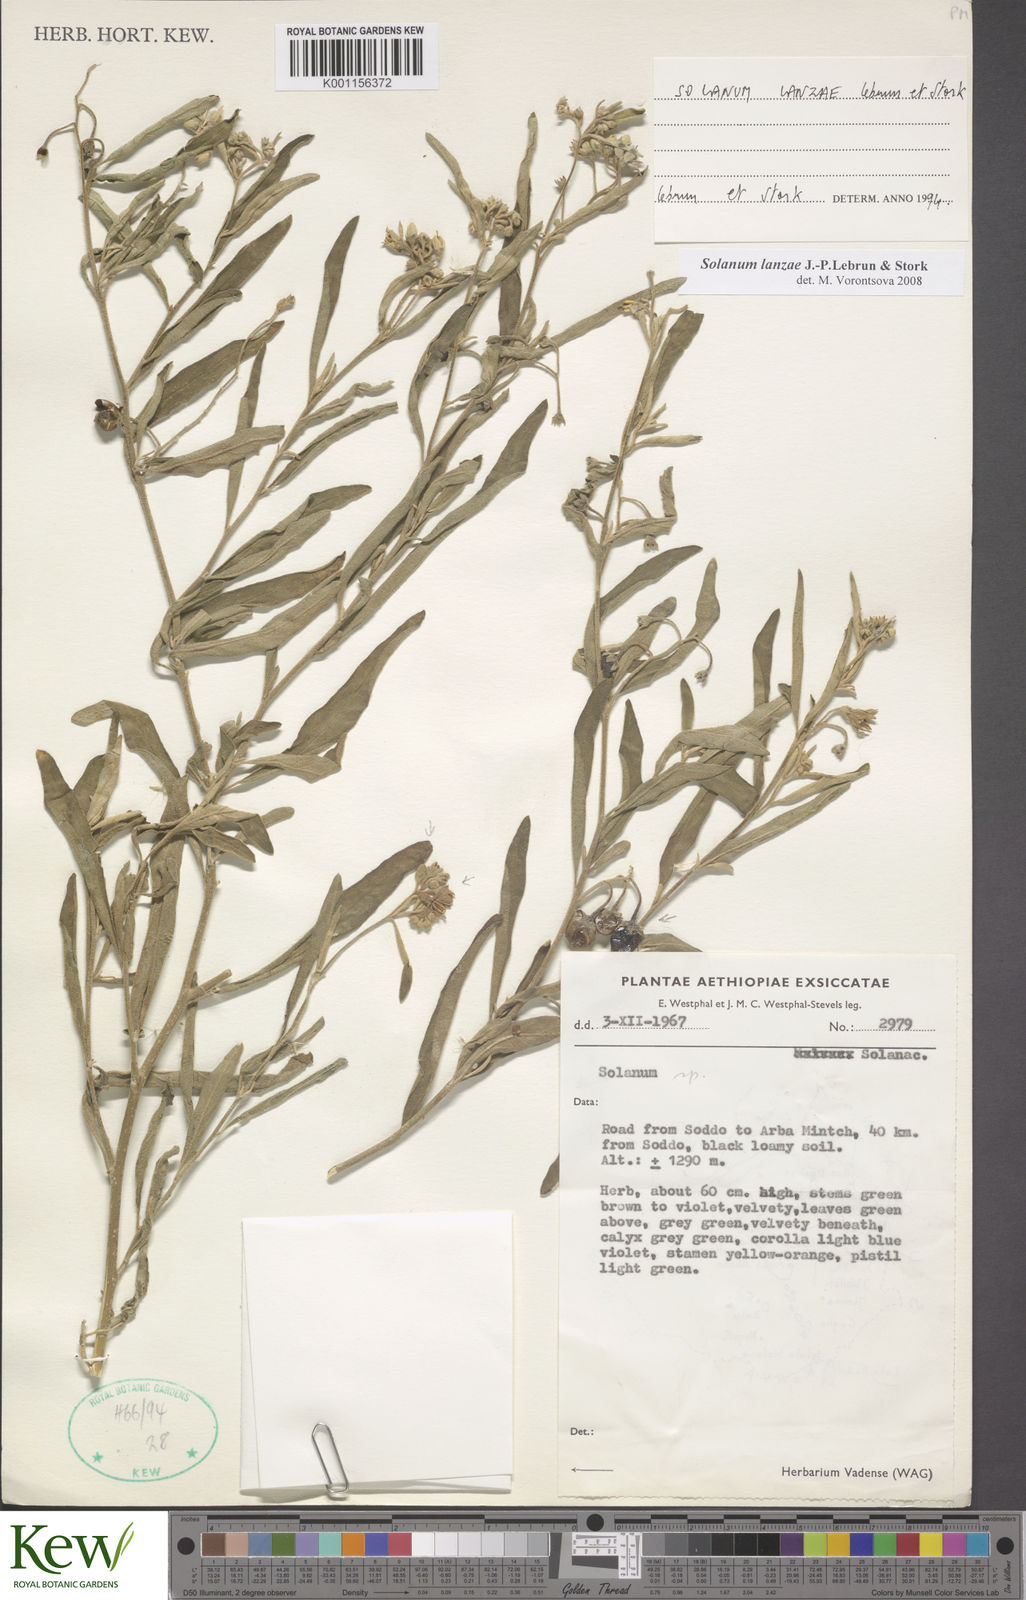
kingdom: Plantae
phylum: Tracheophyta
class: Magnoliopsida
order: Solanales
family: Solanaceae
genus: Solanum
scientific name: Solanum lanzae
